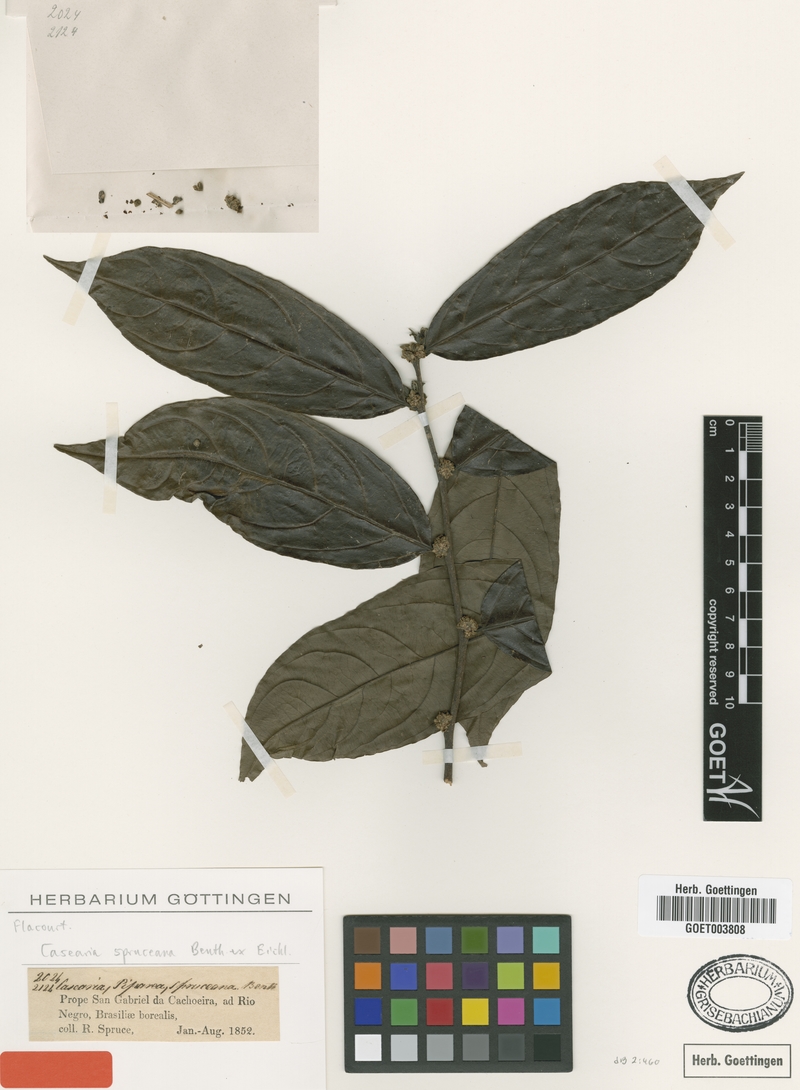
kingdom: Plantae
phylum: Tracheophyta
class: Magnoliopsida
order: Malpighiales
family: Salicaceae
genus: Piparea
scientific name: Piparea spruceana
